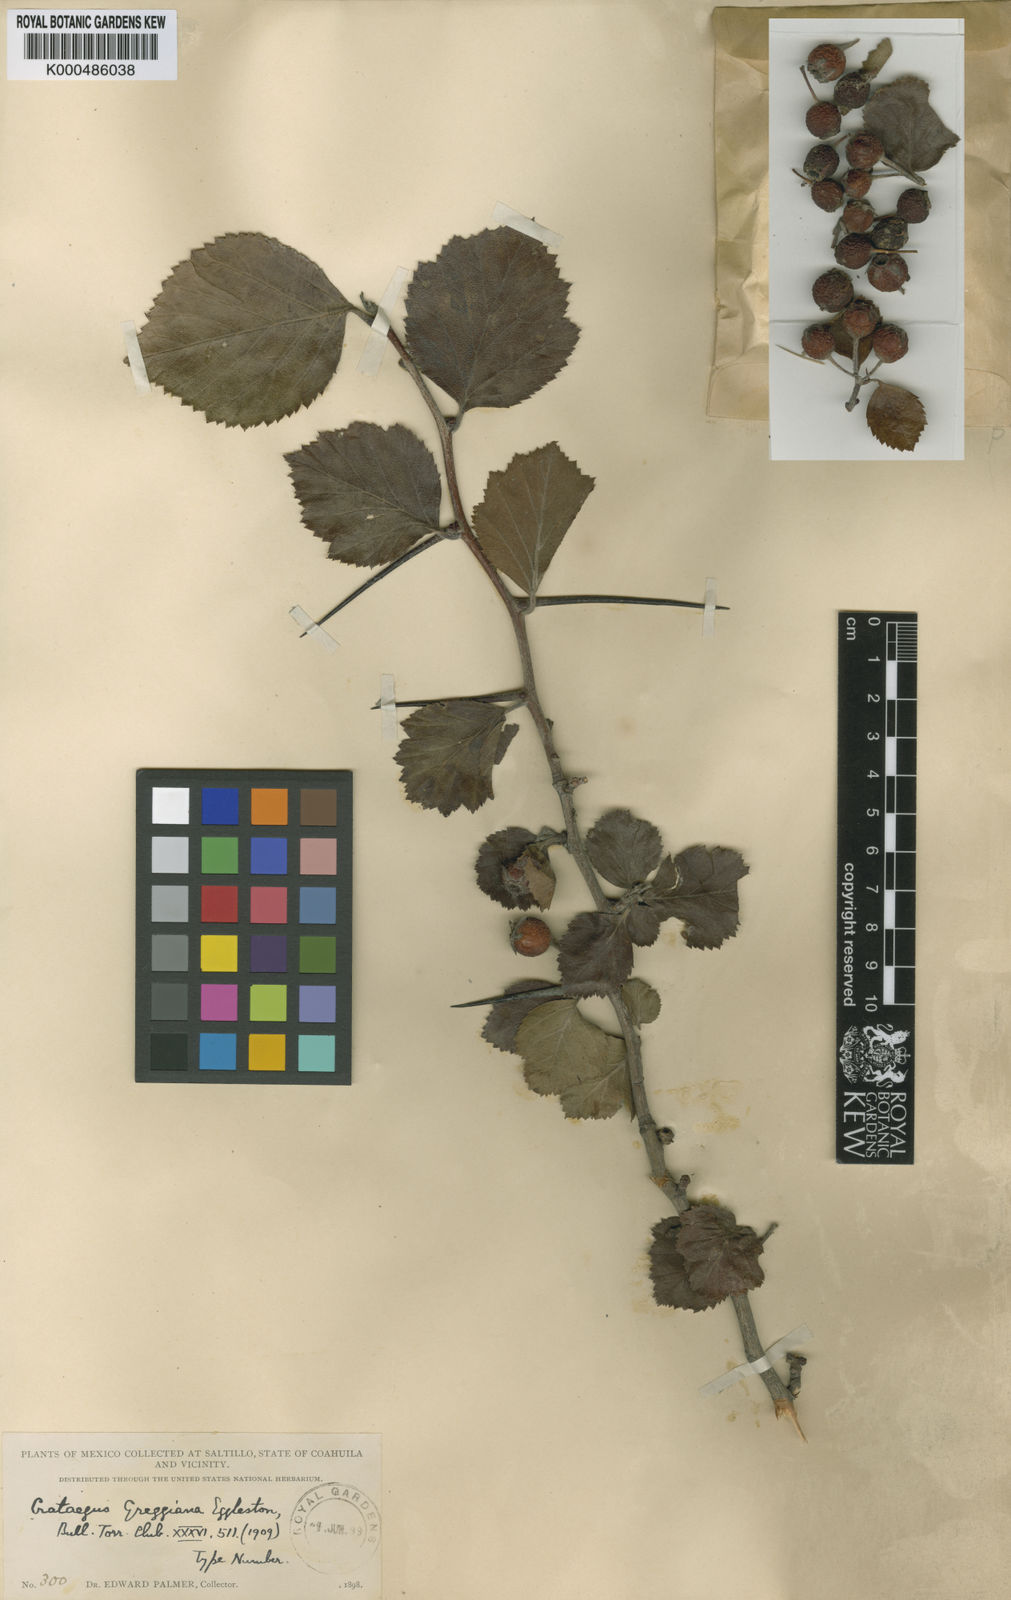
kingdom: Plantae
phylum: Tracheophyta
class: Magnoliopsida
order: Rosales
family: Rosaceae
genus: Crataegus
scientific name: Crataegus greggiana
